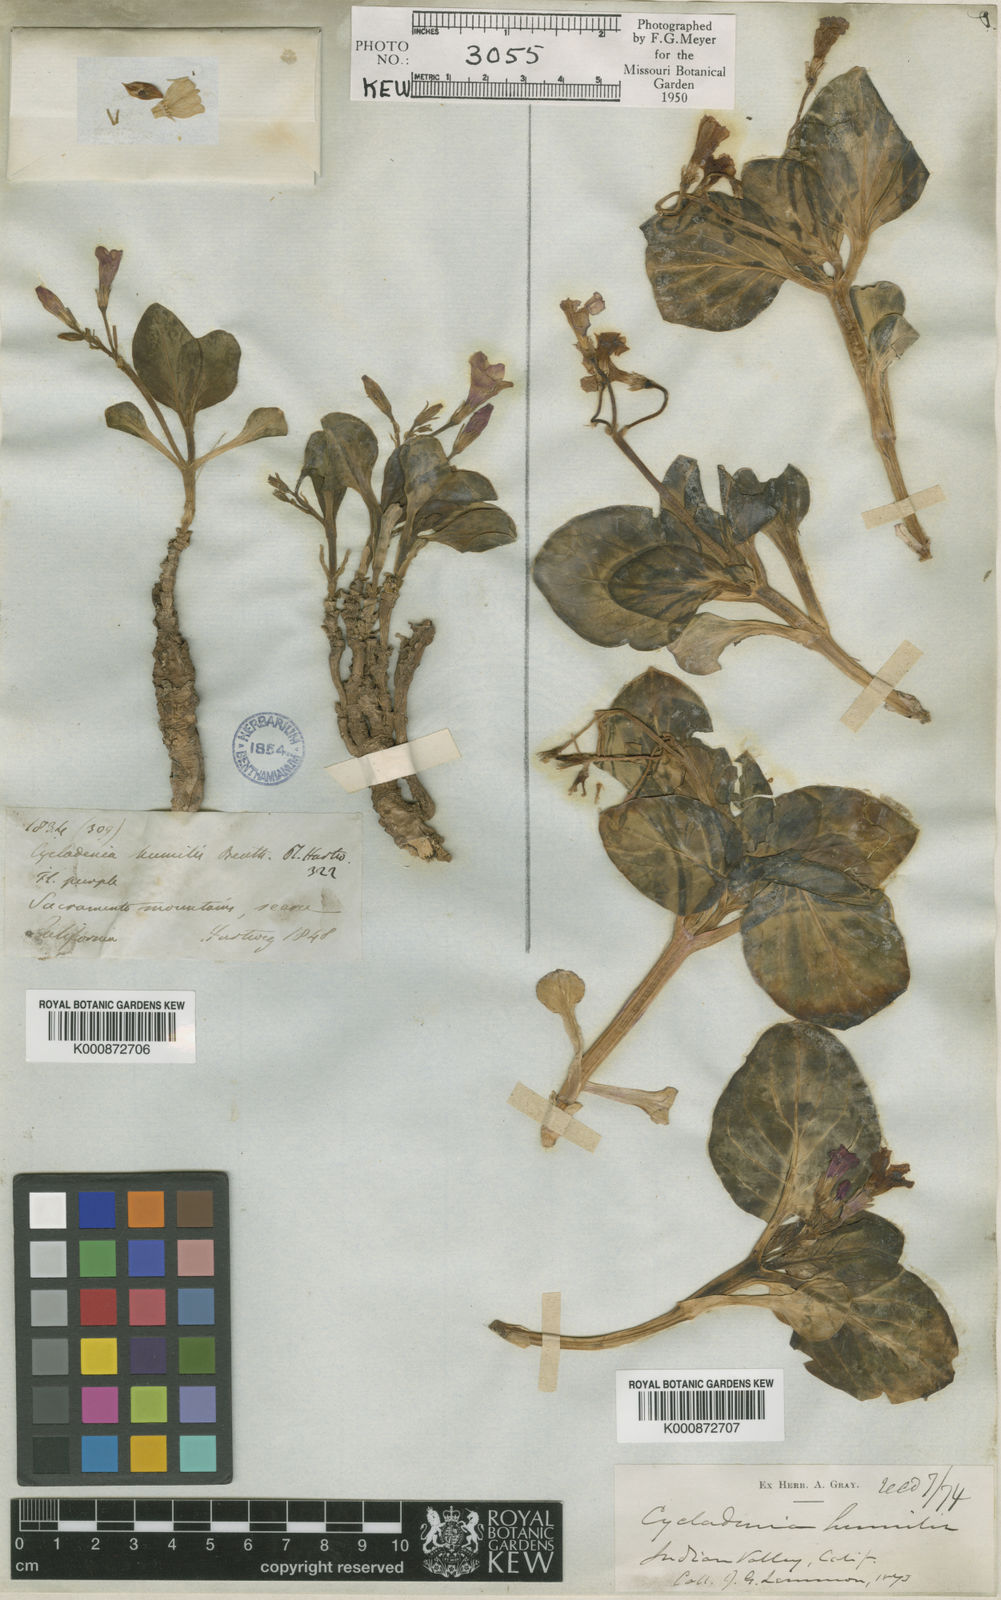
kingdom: Plantae
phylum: Tracheophyta
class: Magnoliopsida
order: Gentianales
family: Apocynaceae
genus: Cycladenia
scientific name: Cycladenia humilis
